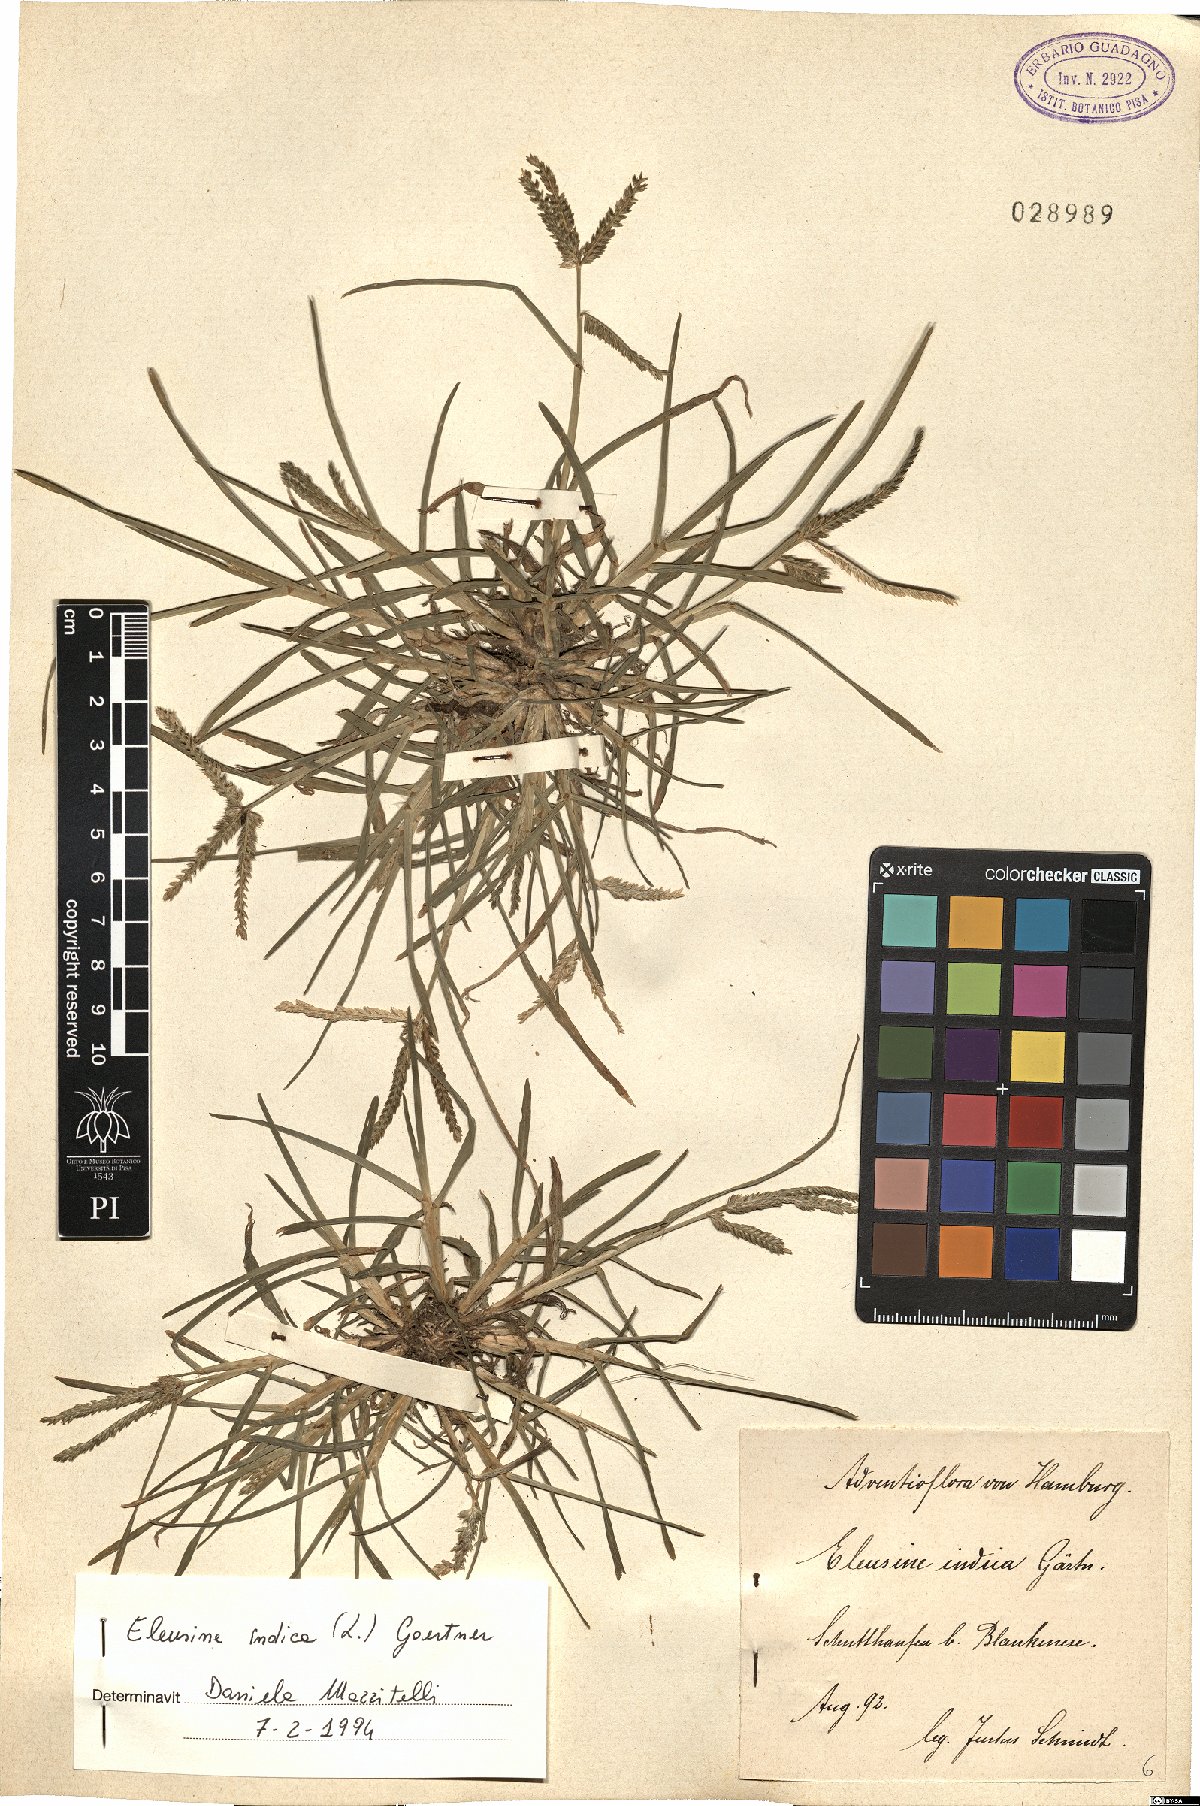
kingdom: Plantae
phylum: Tracheophyta
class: Liliopsida
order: Poales
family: Poaceae
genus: Eleusine
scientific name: Eleusine indica
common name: Yard-grass
